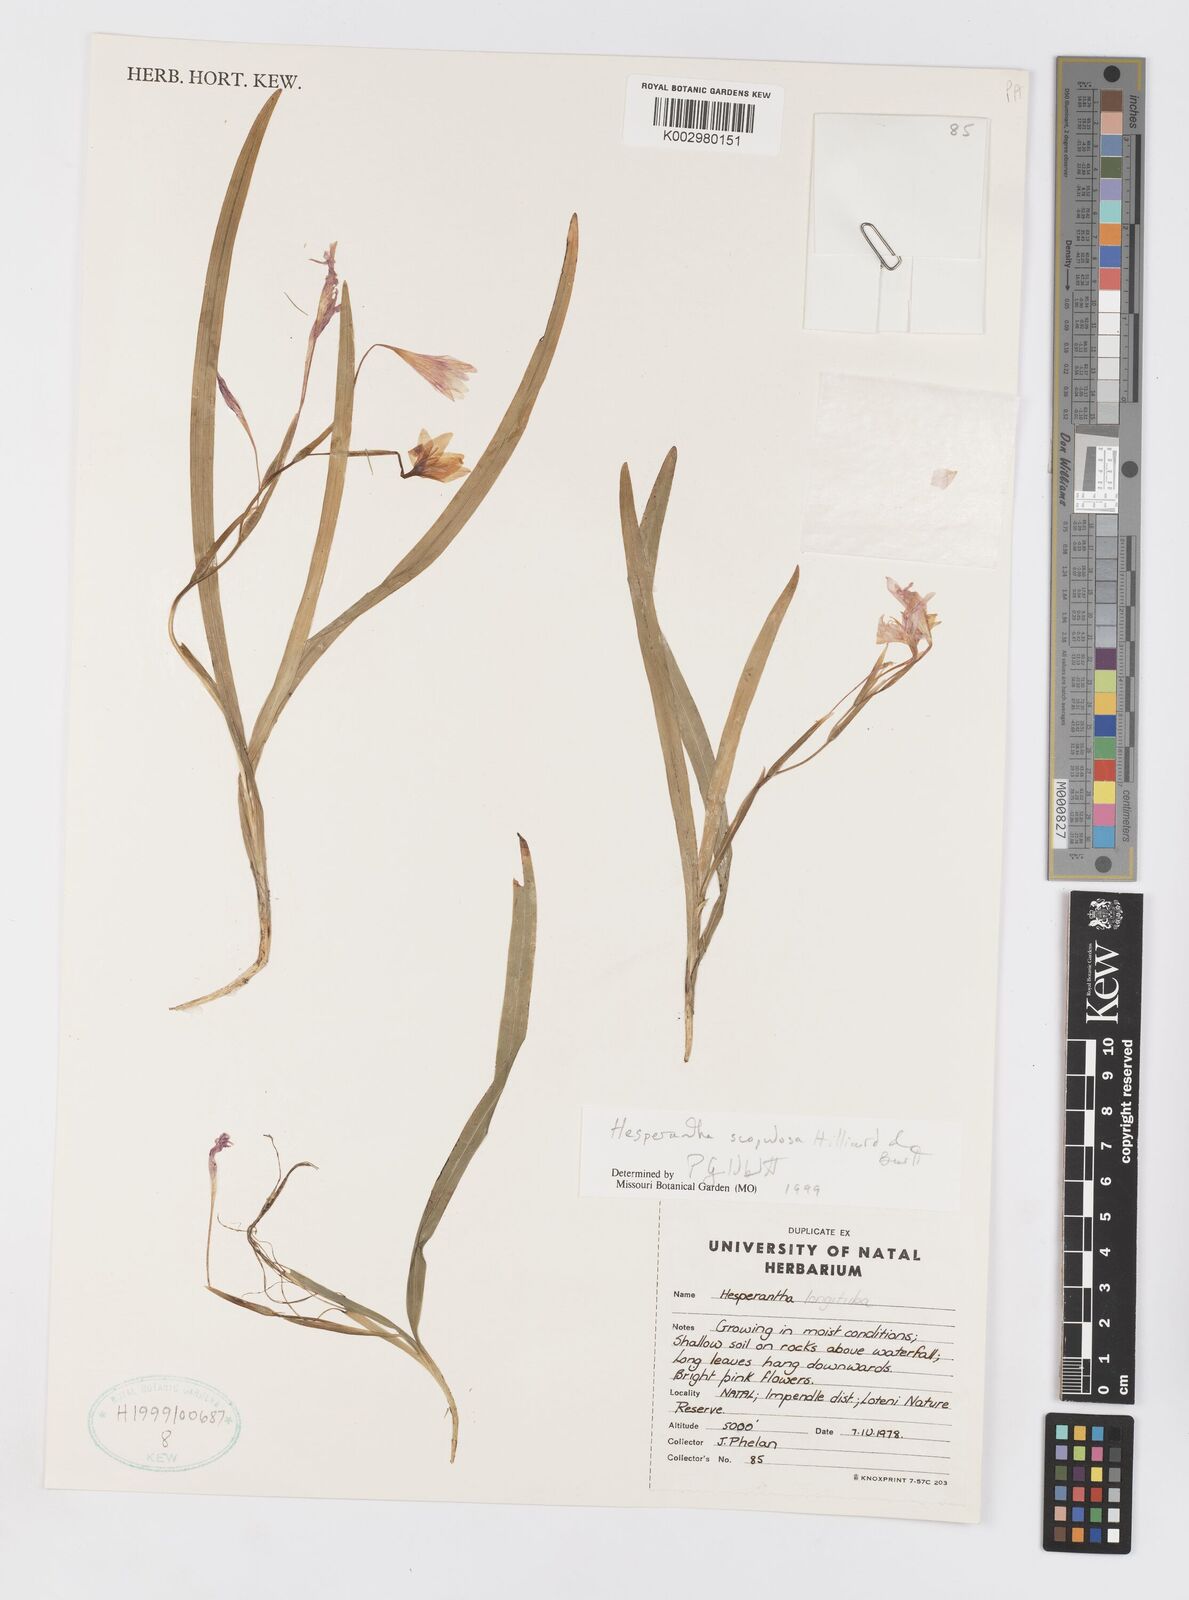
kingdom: Plantae
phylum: Tracheophyta
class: Liliopsida
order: Asparagales
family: Iridaceae
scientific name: Iridaceae
